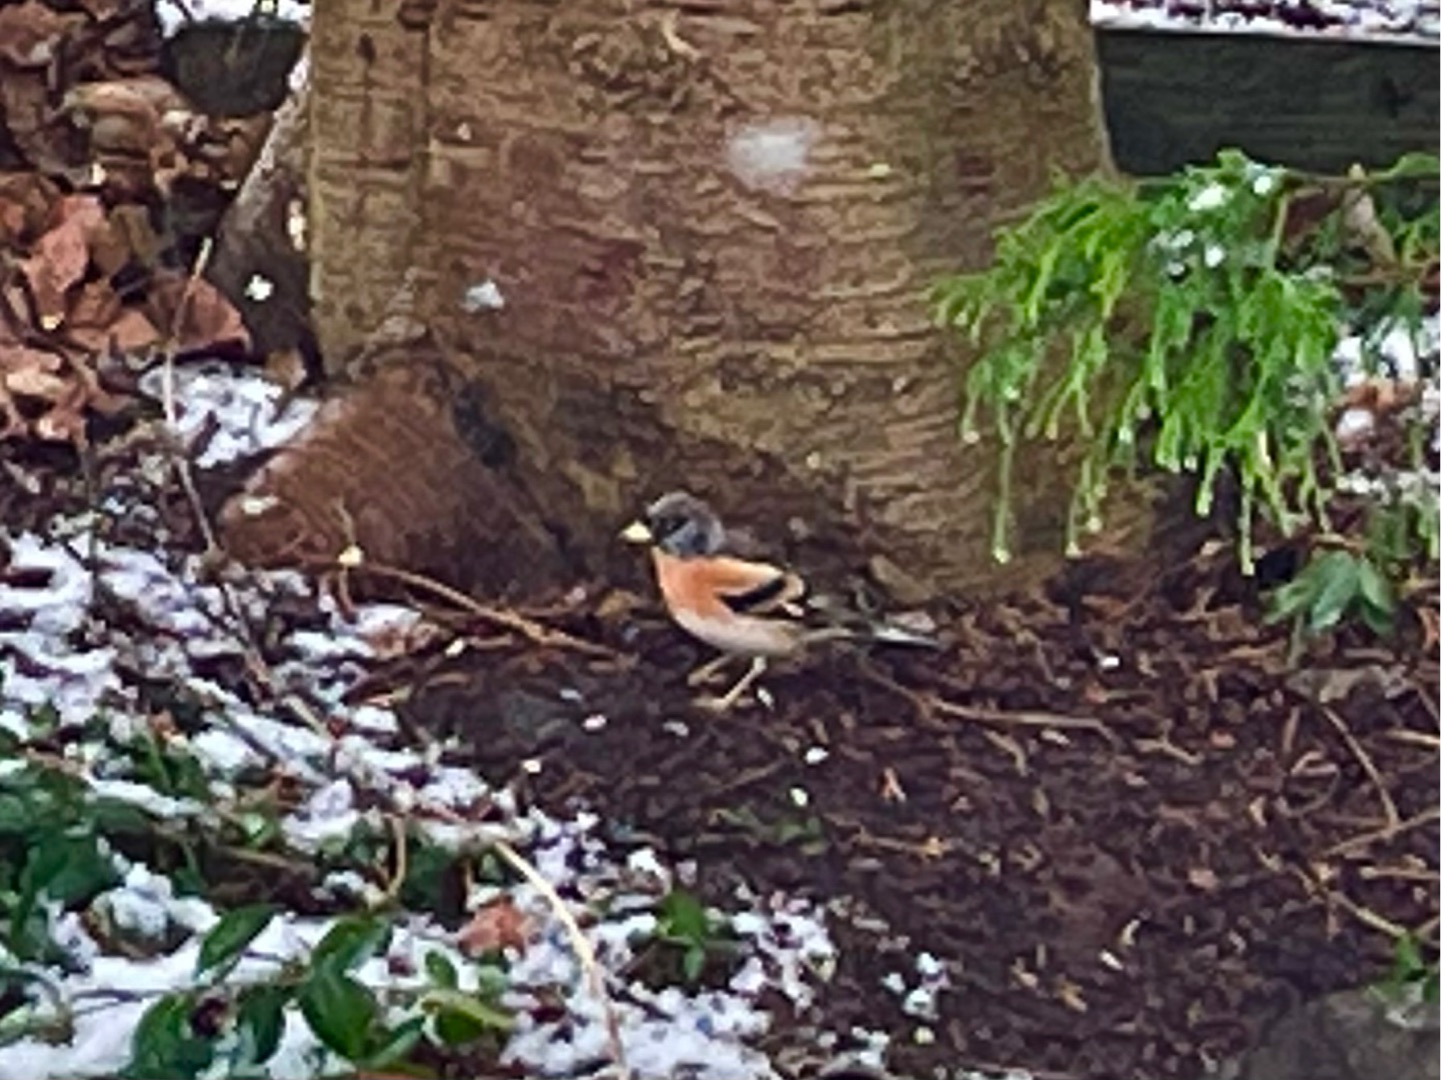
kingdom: Animalia
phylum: Chordata
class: Aves
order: Passeriformes
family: Fringillidae
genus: Fringilla
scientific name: Fringilla montifringilla
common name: Kvækerfinke
